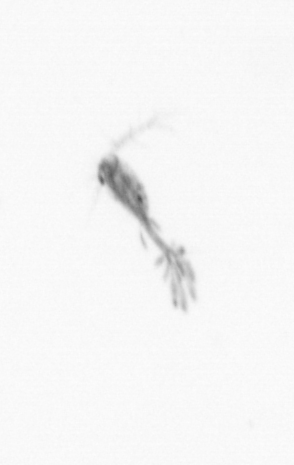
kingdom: Animalia
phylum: Arthropoda
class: Copepoda
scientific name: Copepoda
